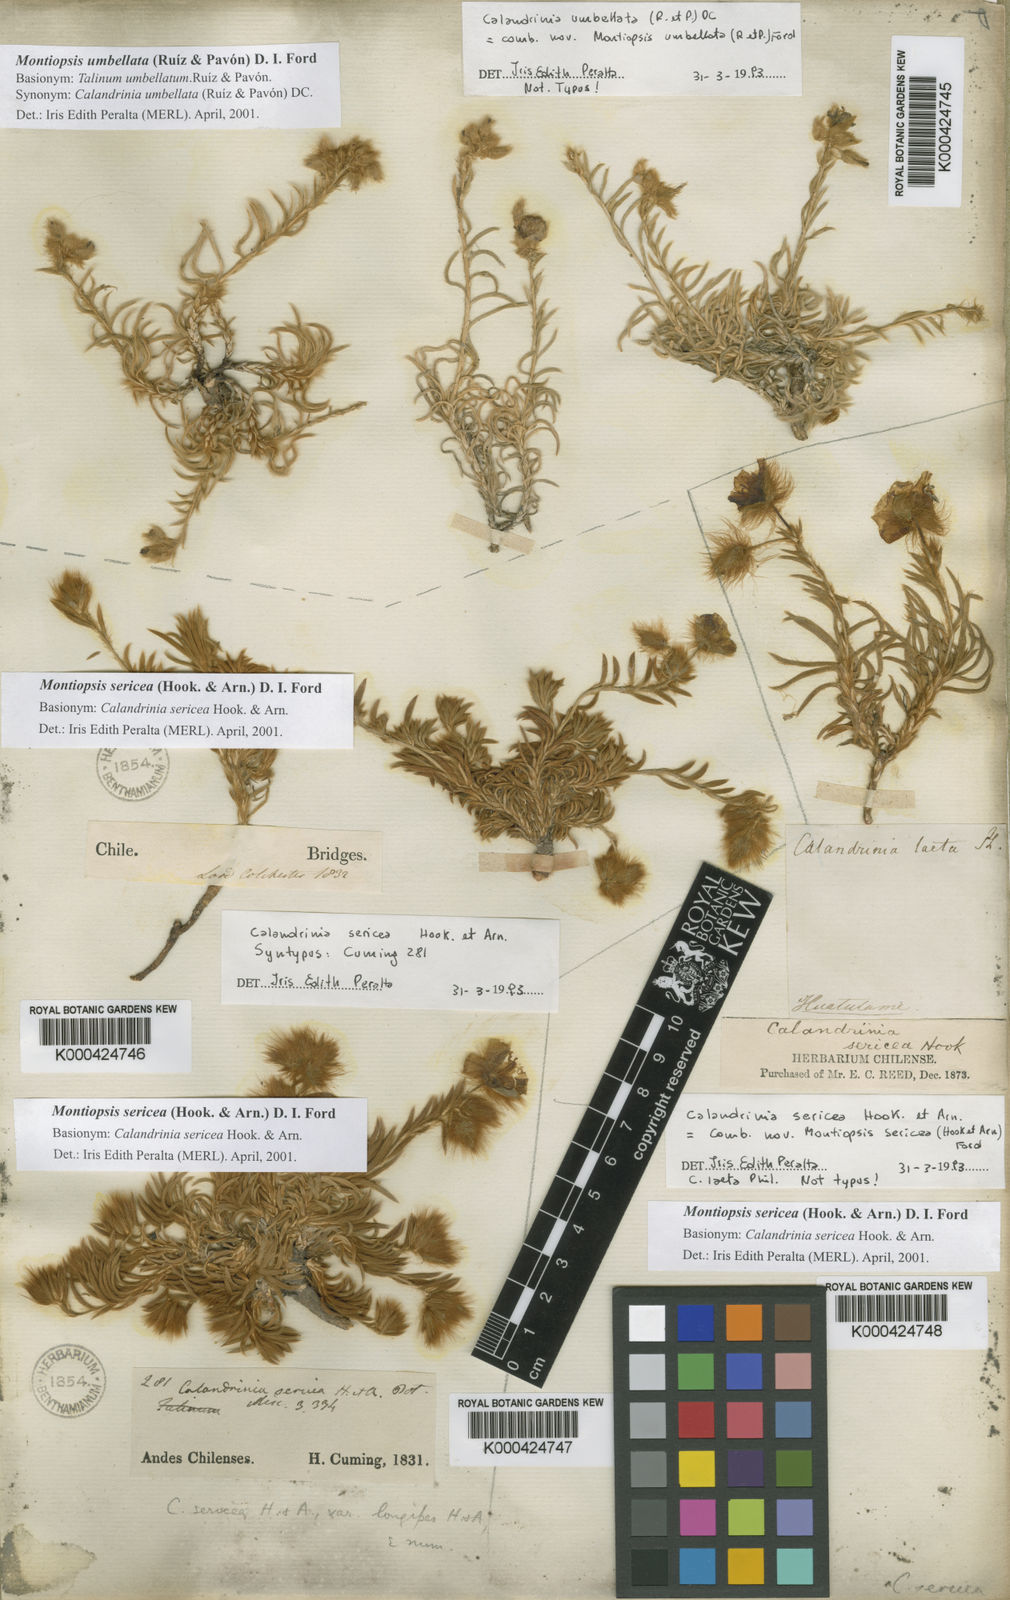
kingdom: Plantae
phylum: Tracheophyta
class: Magnoliopsida
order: Caryophyllales
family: Montiaceae
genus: Montiopsis
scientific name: Montiopsis sericea
